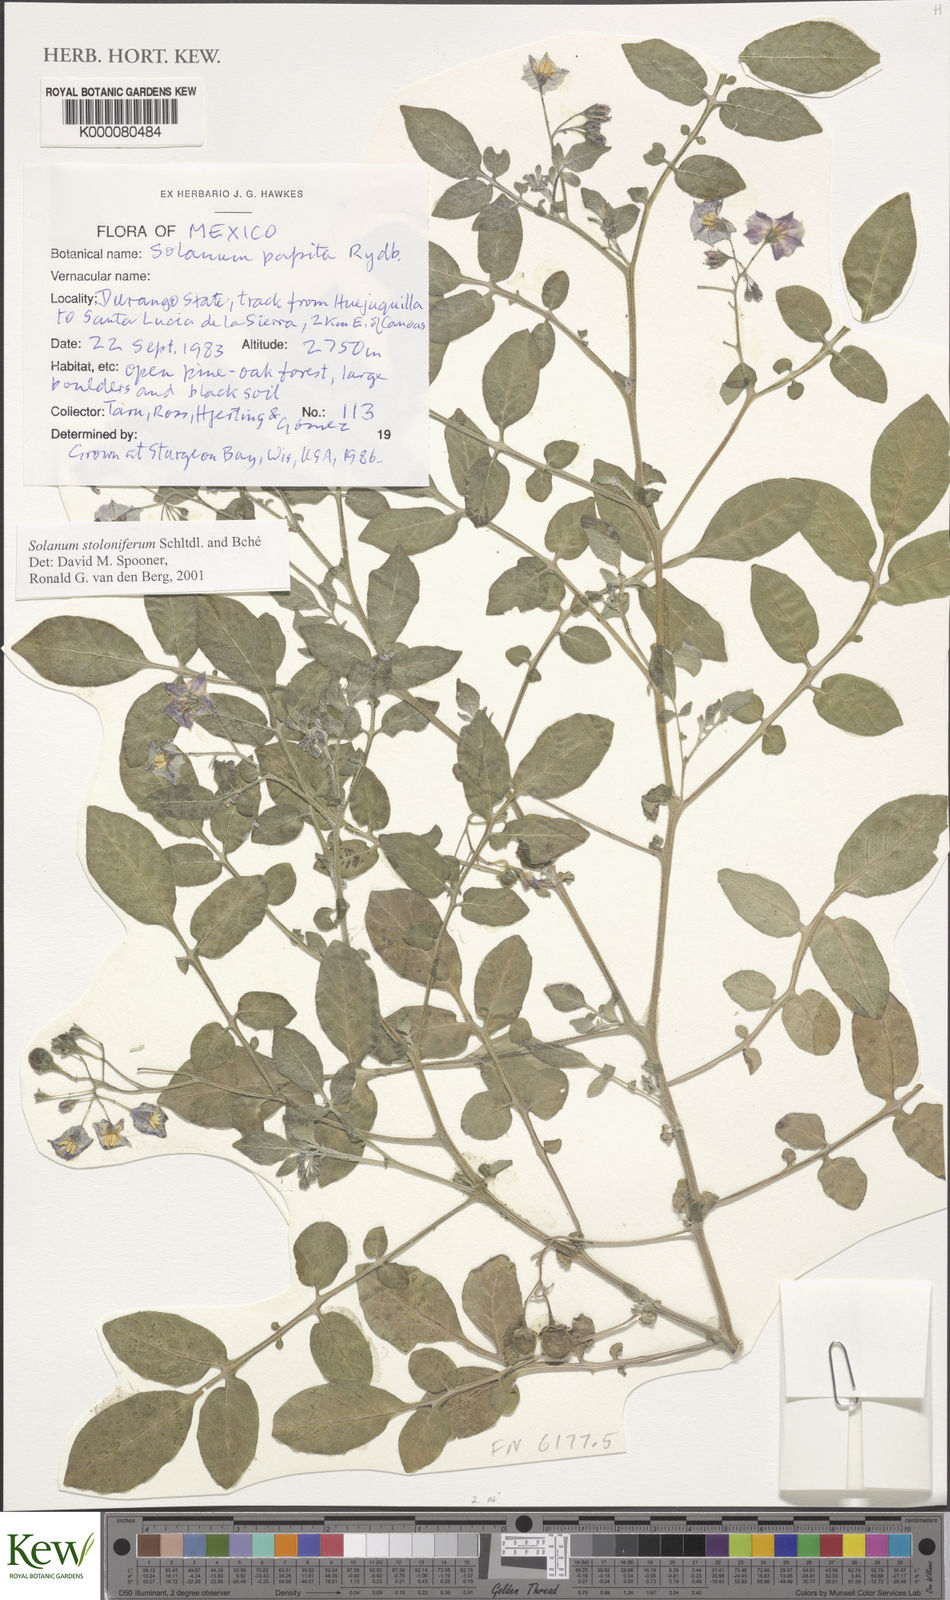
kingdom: Plantae
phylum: Tracheophyta
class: Magnoliopsida
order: Solanales
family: Solanaceae
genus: Solanum
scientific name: Solanum stoloniferum
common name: Fendler's nighshade
